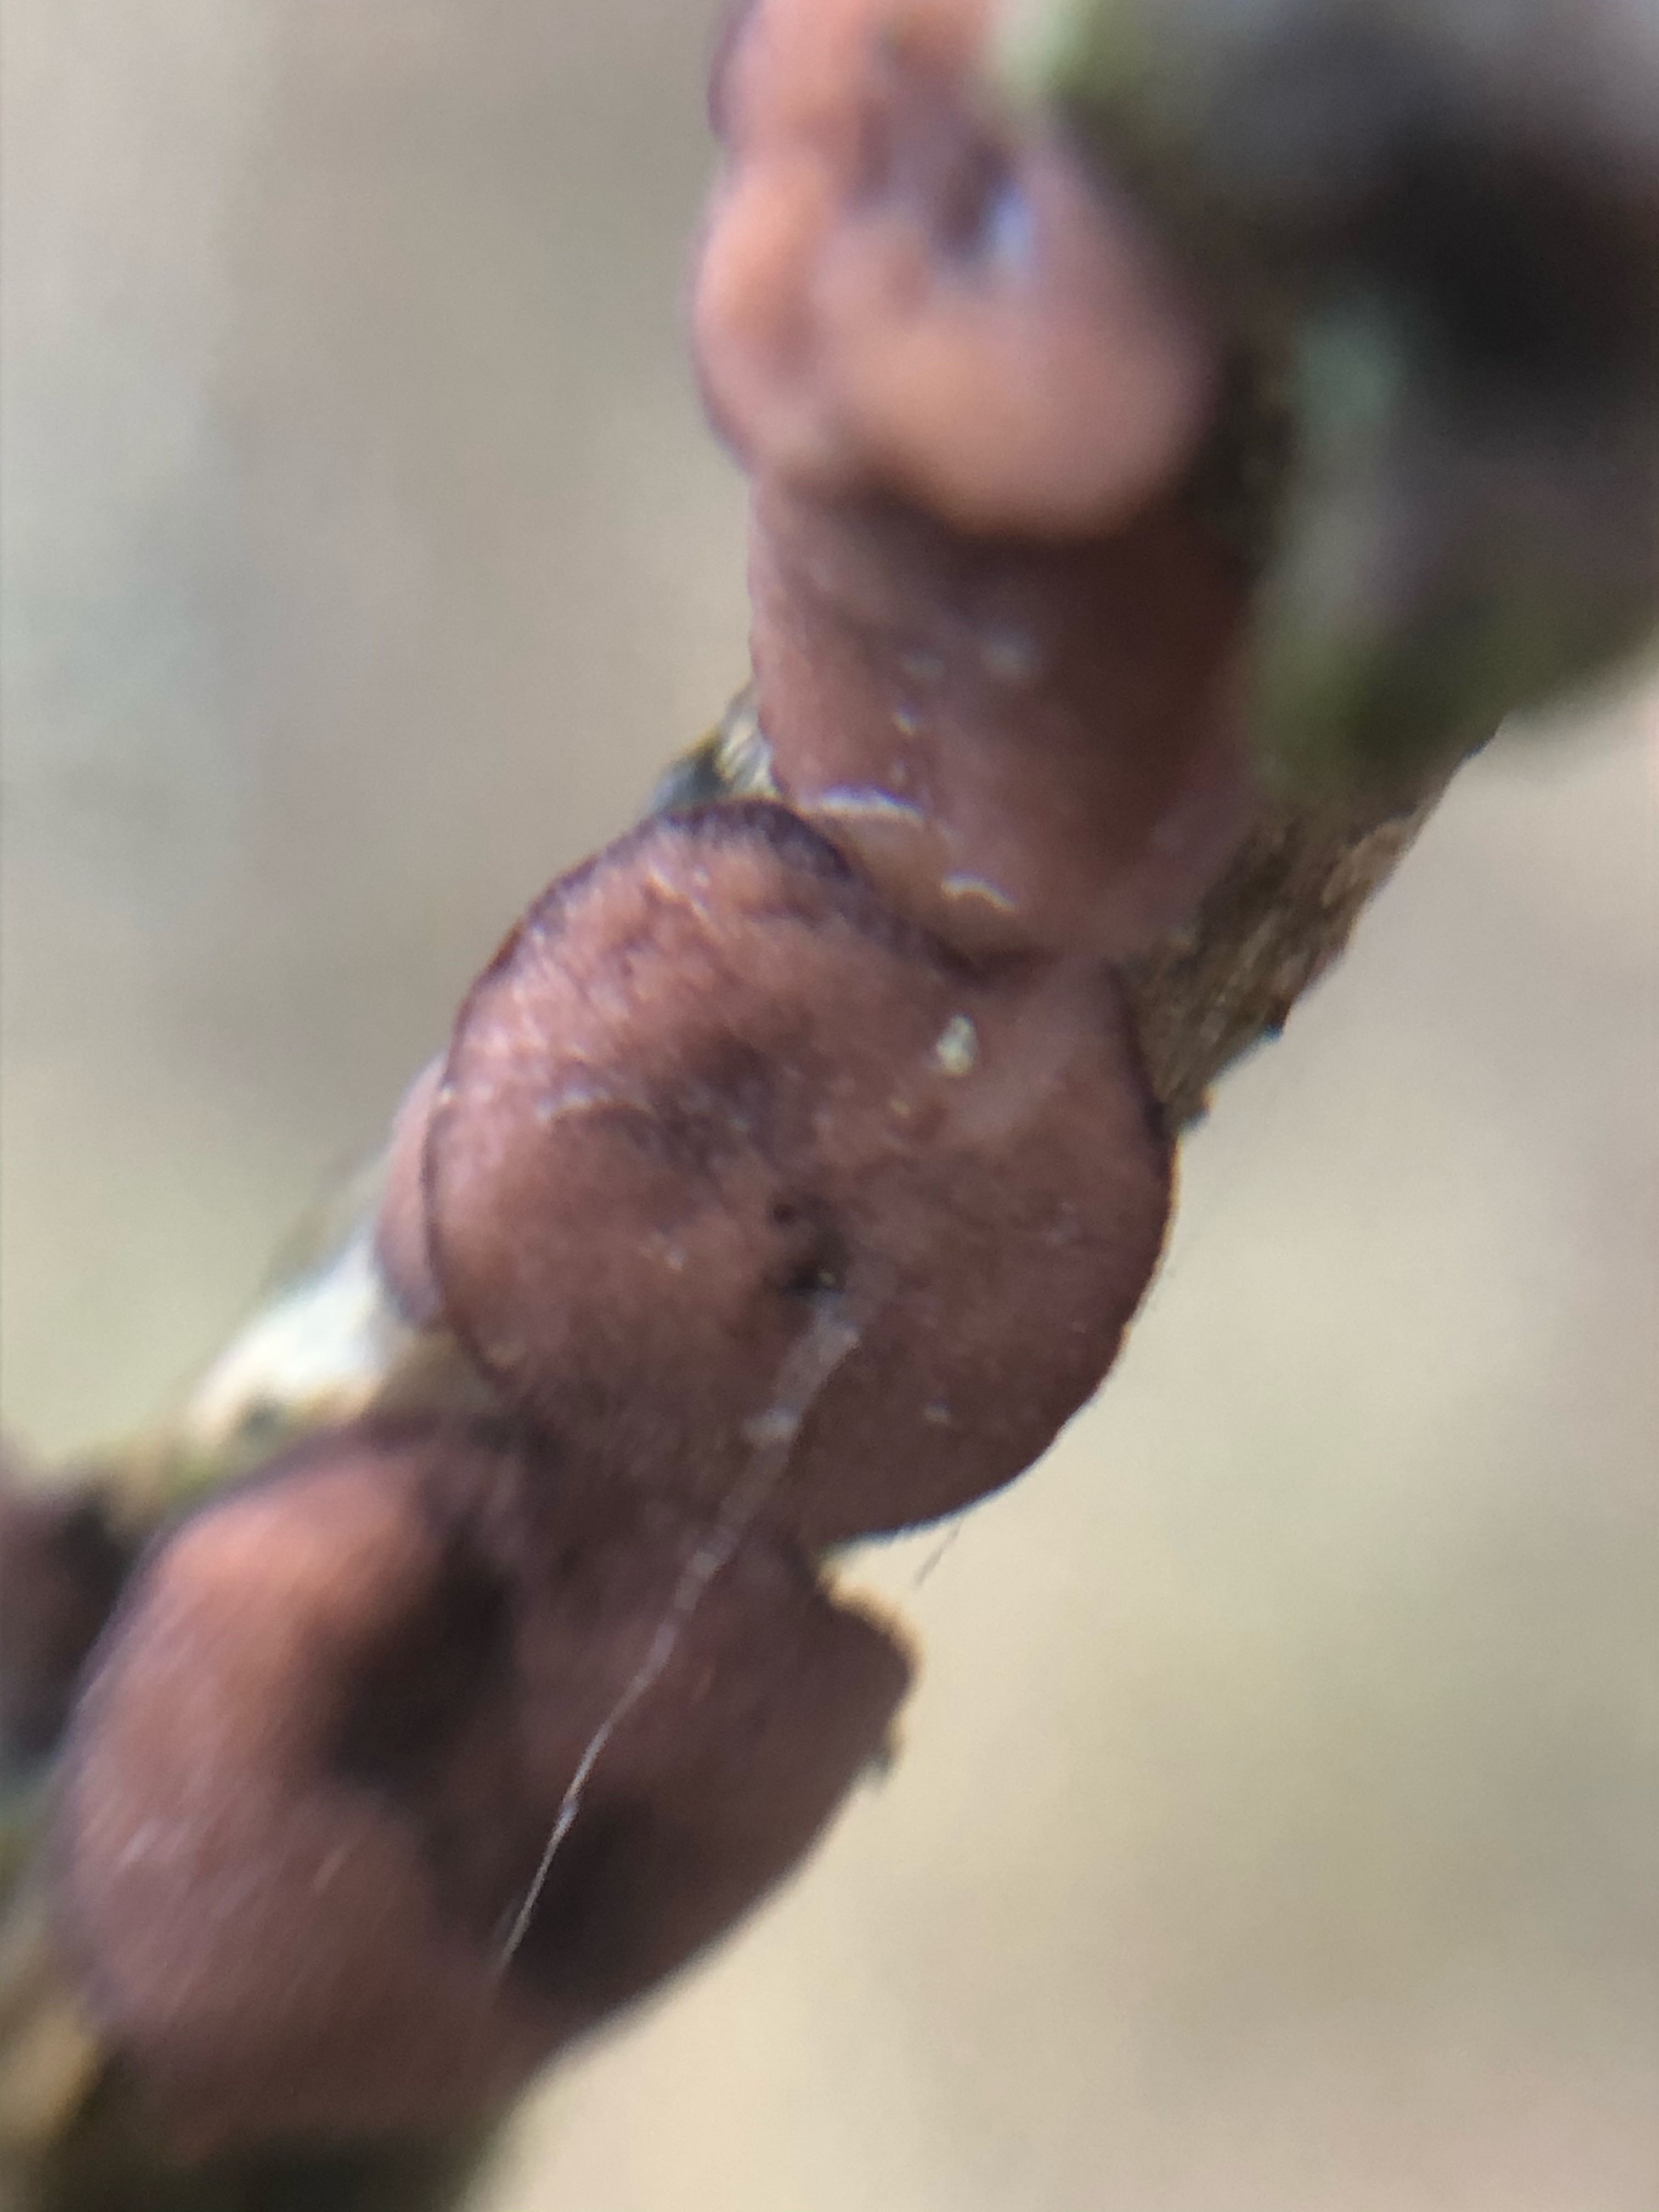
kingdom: Fungi
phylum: Ascomycota
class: Leotiomycetes
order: Helotiales
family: Rutstroemiaceae
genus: Rutstroemia
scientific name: Rutstroemia firma
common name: gren-brunskive
